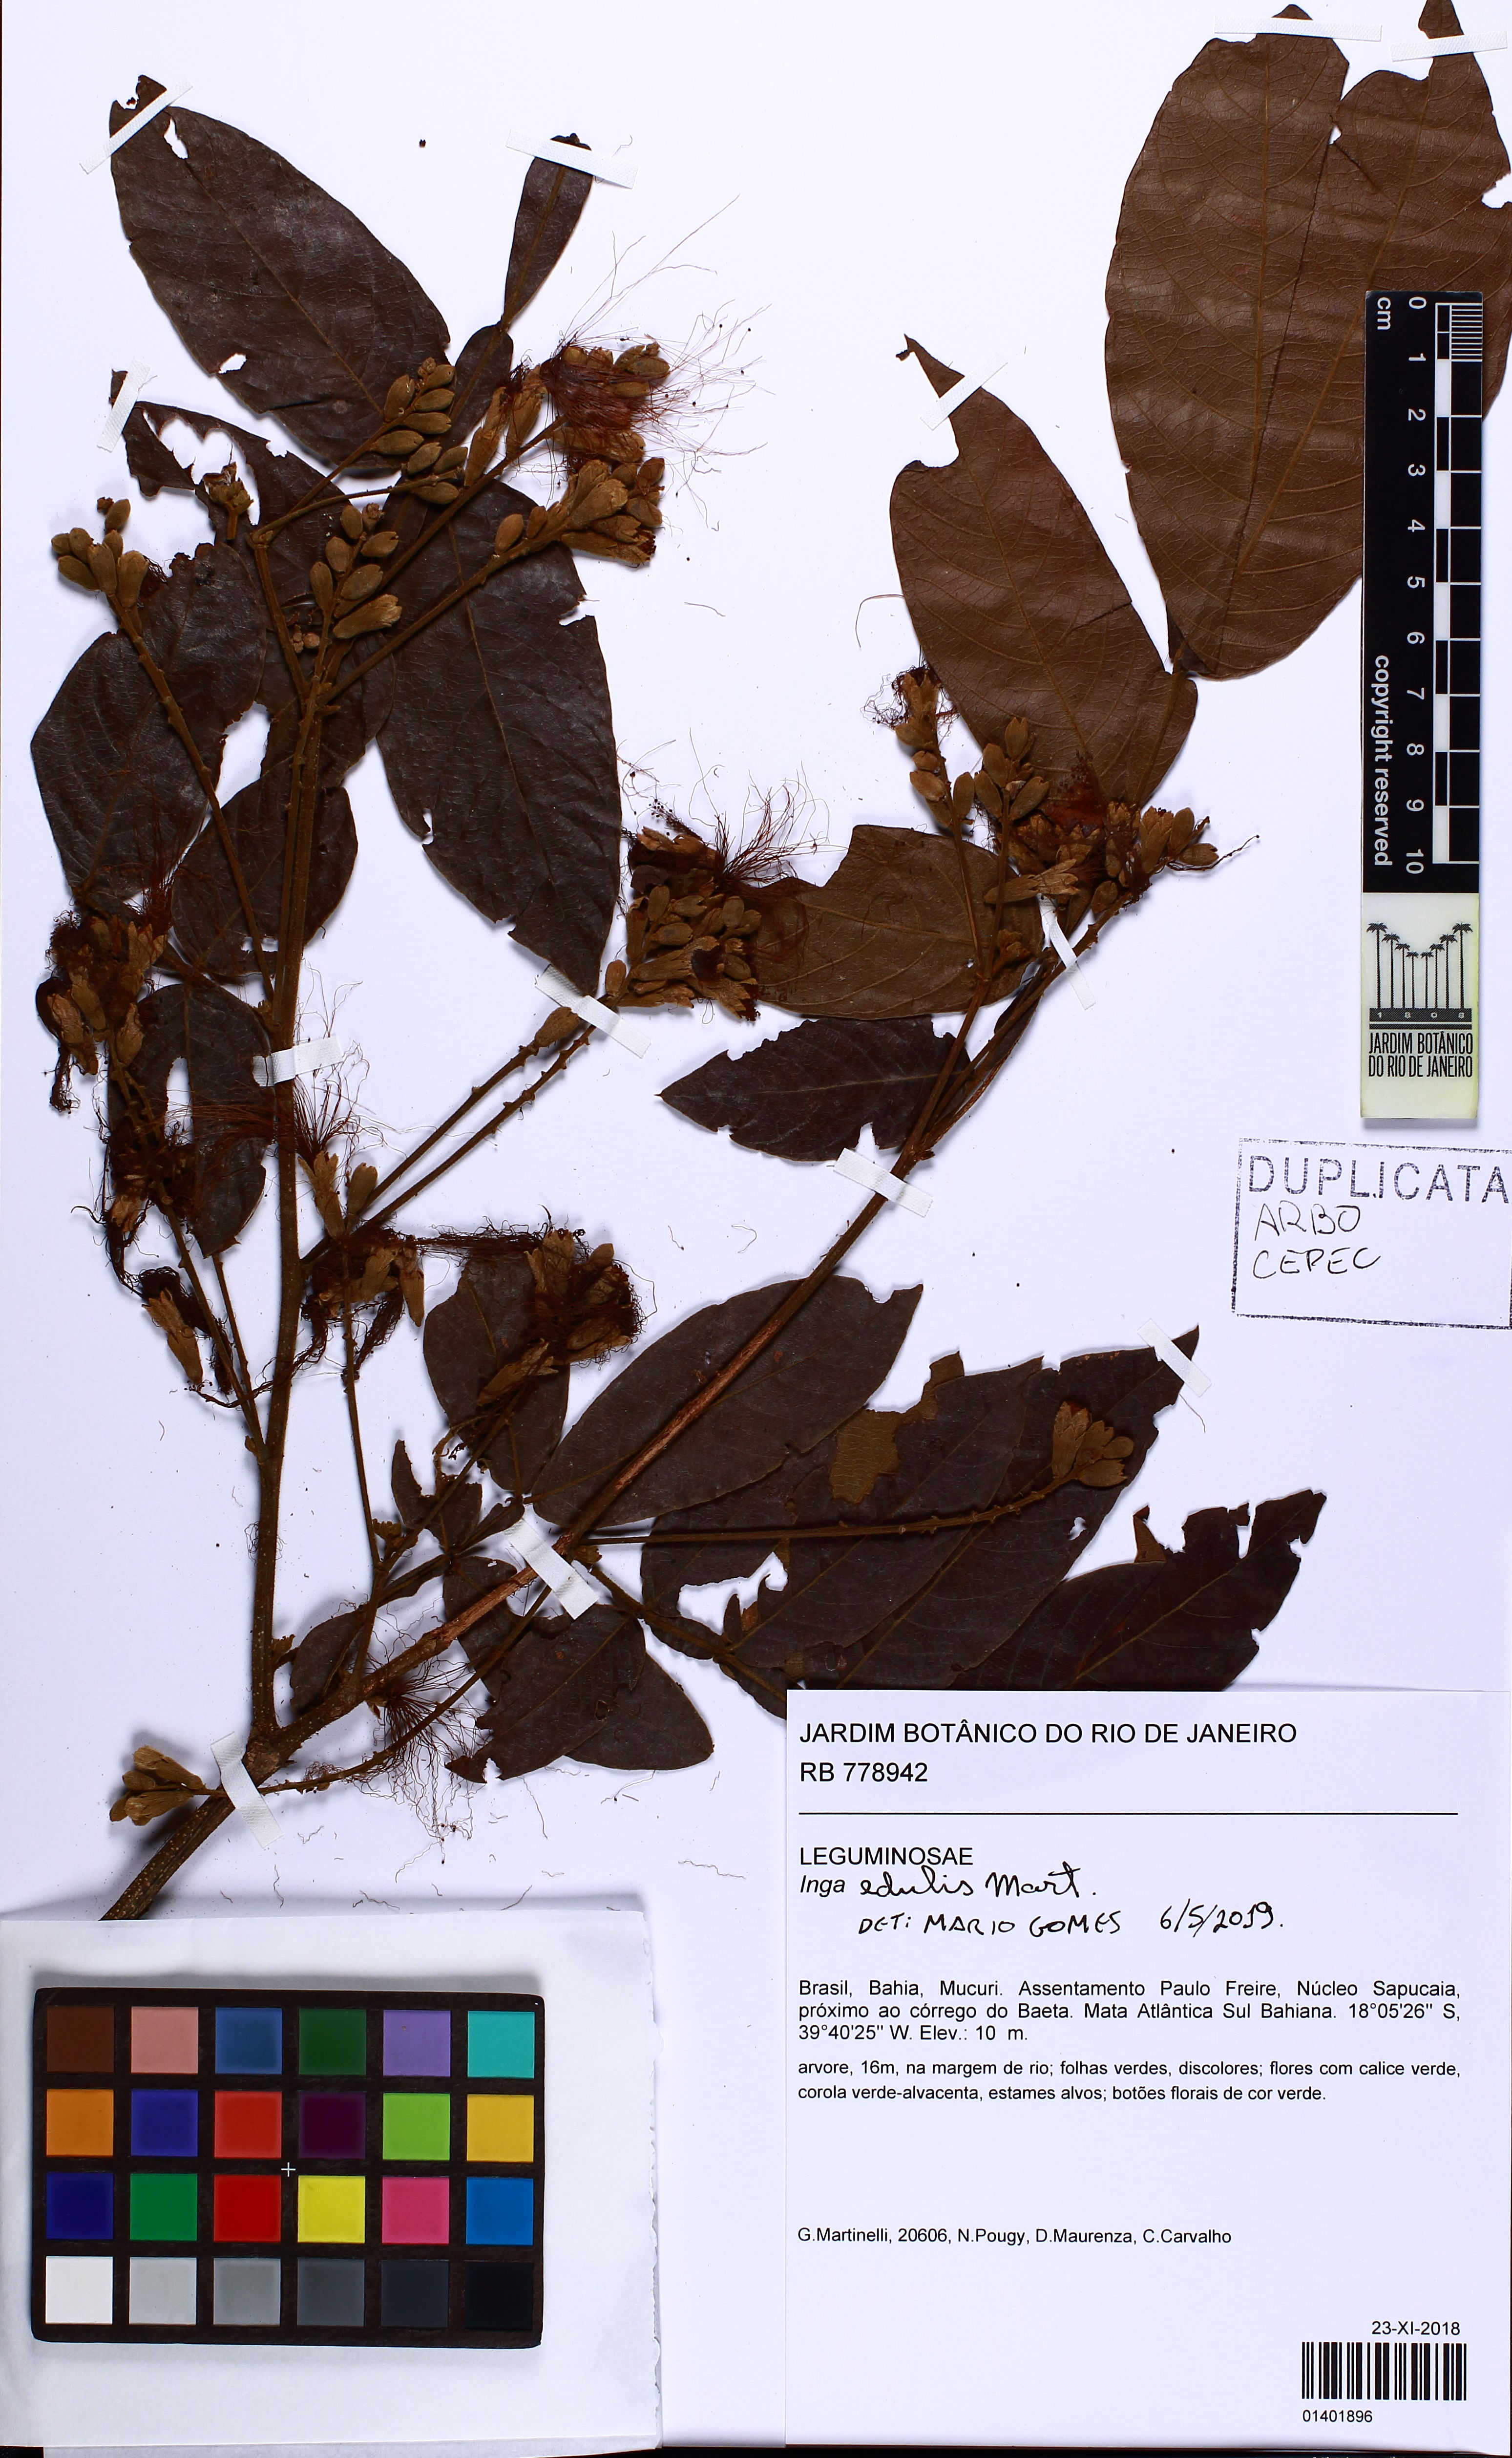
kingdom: Plantae
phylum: Tracheophyta
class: Magnoliopsida
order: Fabales
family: Fabaceae
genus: Inga
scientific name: Inga edulis
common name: Ice cream bean
